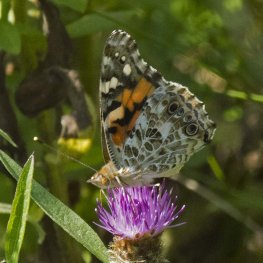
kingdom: Animalia
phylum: Arthropoda
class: Insecta
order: Lepidoptera
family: Nymphalidae
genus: Vanessa
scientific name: Vanessa cardui
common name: Painted Lady
